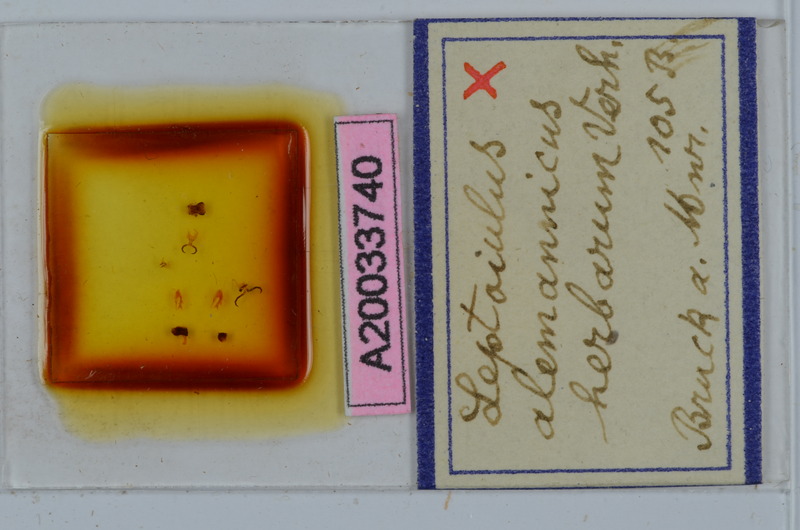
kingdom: Animalia
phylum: Arthropoda
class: Diplopoda
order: Julida
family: Julidae
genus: Leptoiulus
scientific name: Leptoiulus alemannicus
